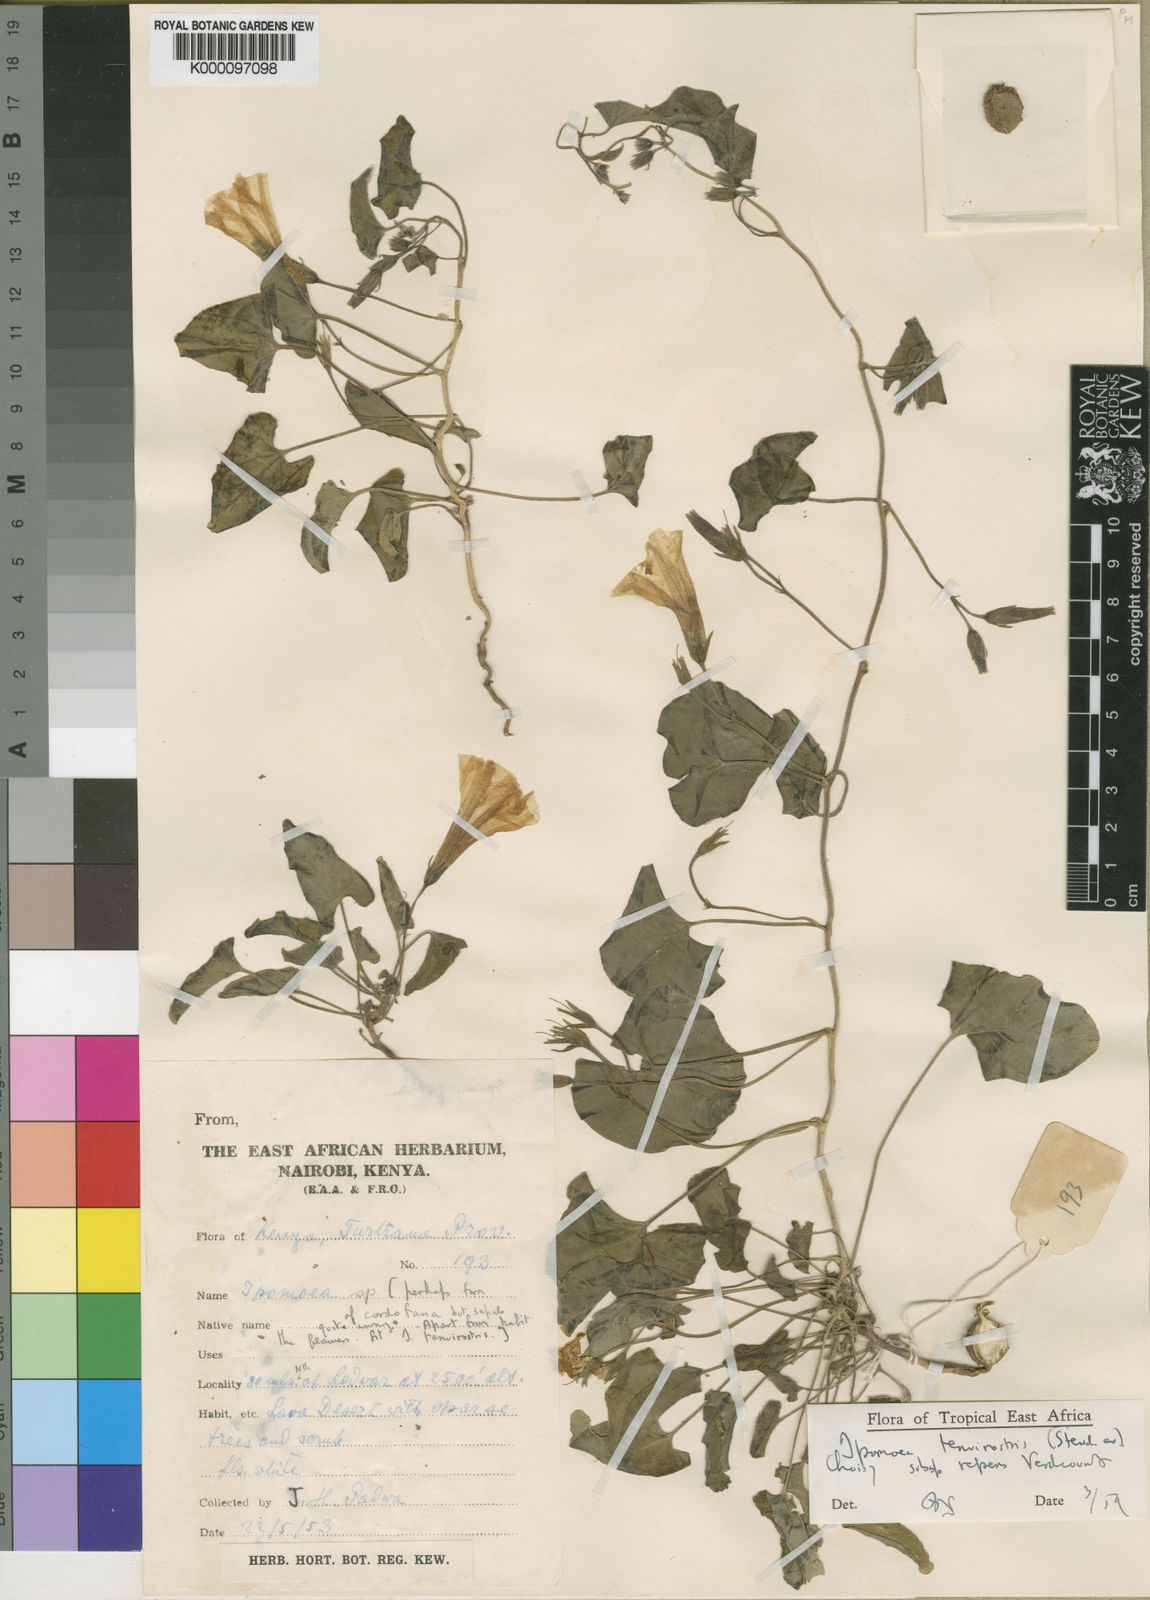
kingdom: Plantae
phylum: Tracheophyta
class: Magnoliopsida
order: Solanales
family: Convolvulaceae
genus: Ipomoea
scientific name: Ipomoea tenuirostris
